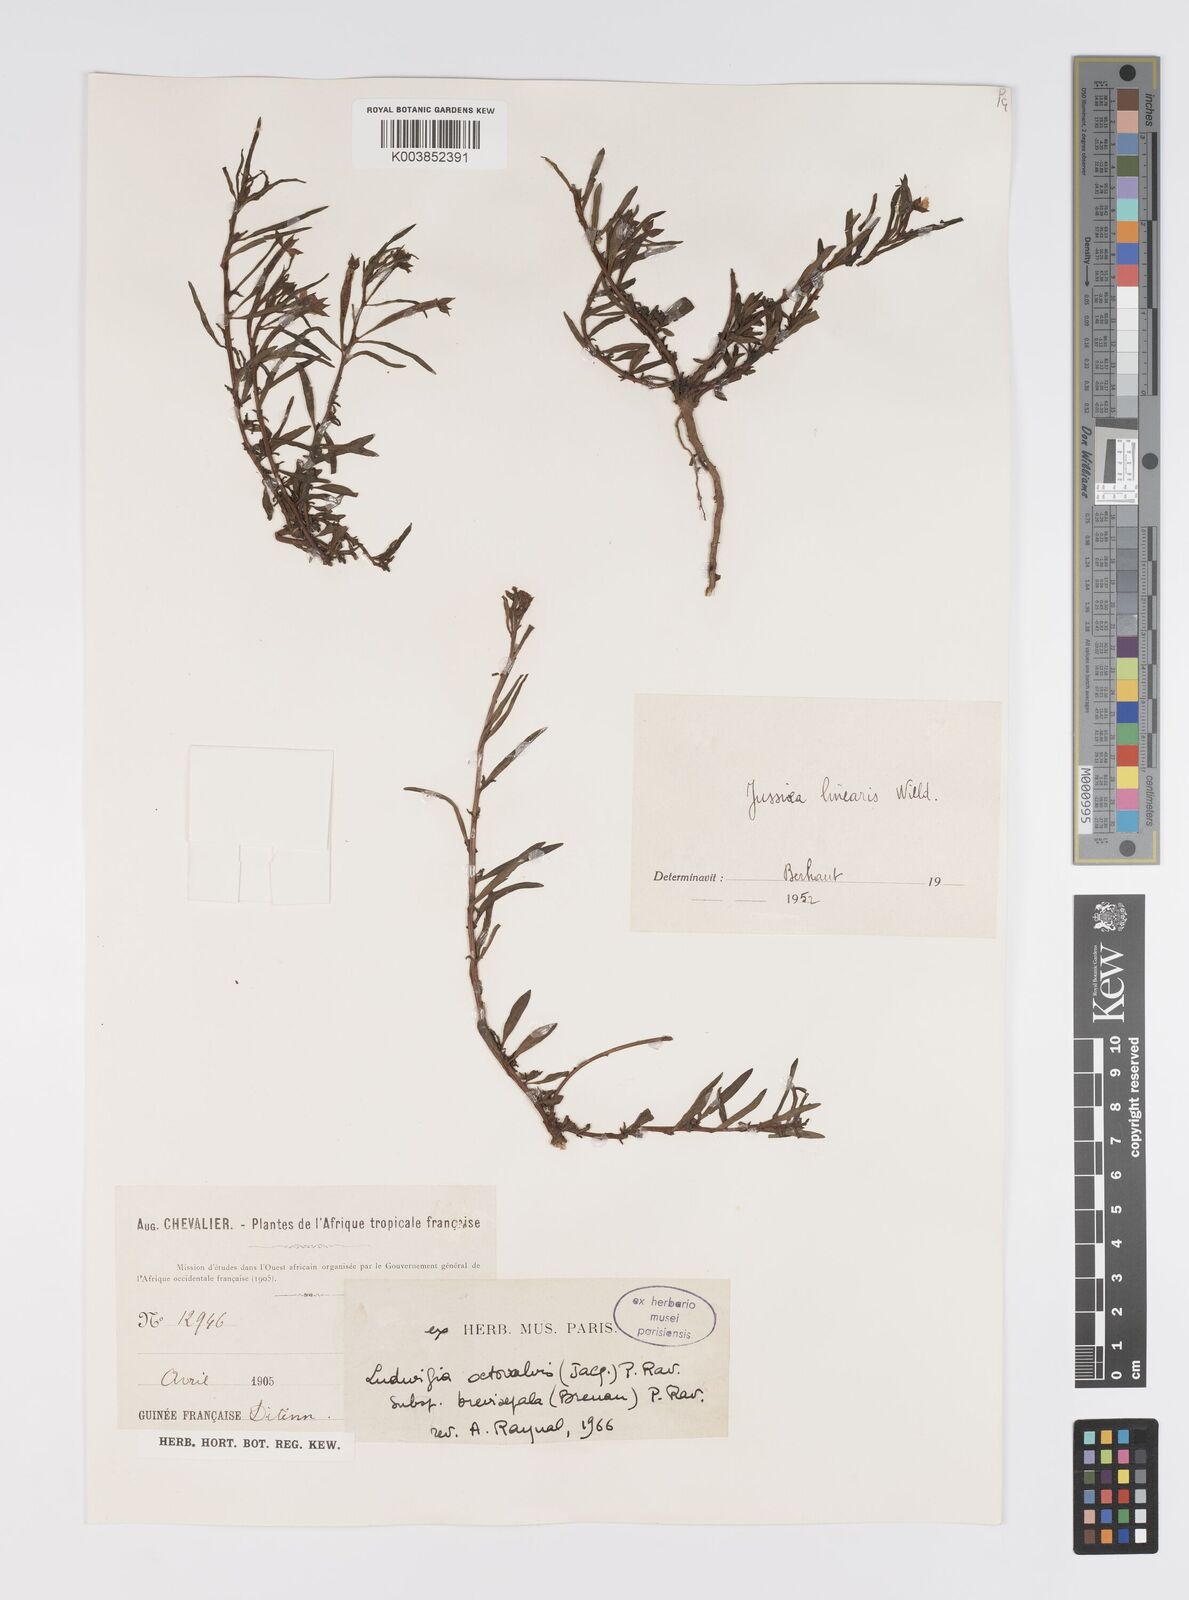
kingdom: Plantae
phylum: Tracheophyta
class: Magnoliopsida
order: Myrtales
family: Onagraceae
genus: Ludwigia
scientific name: Ludwigia suffruticosa
